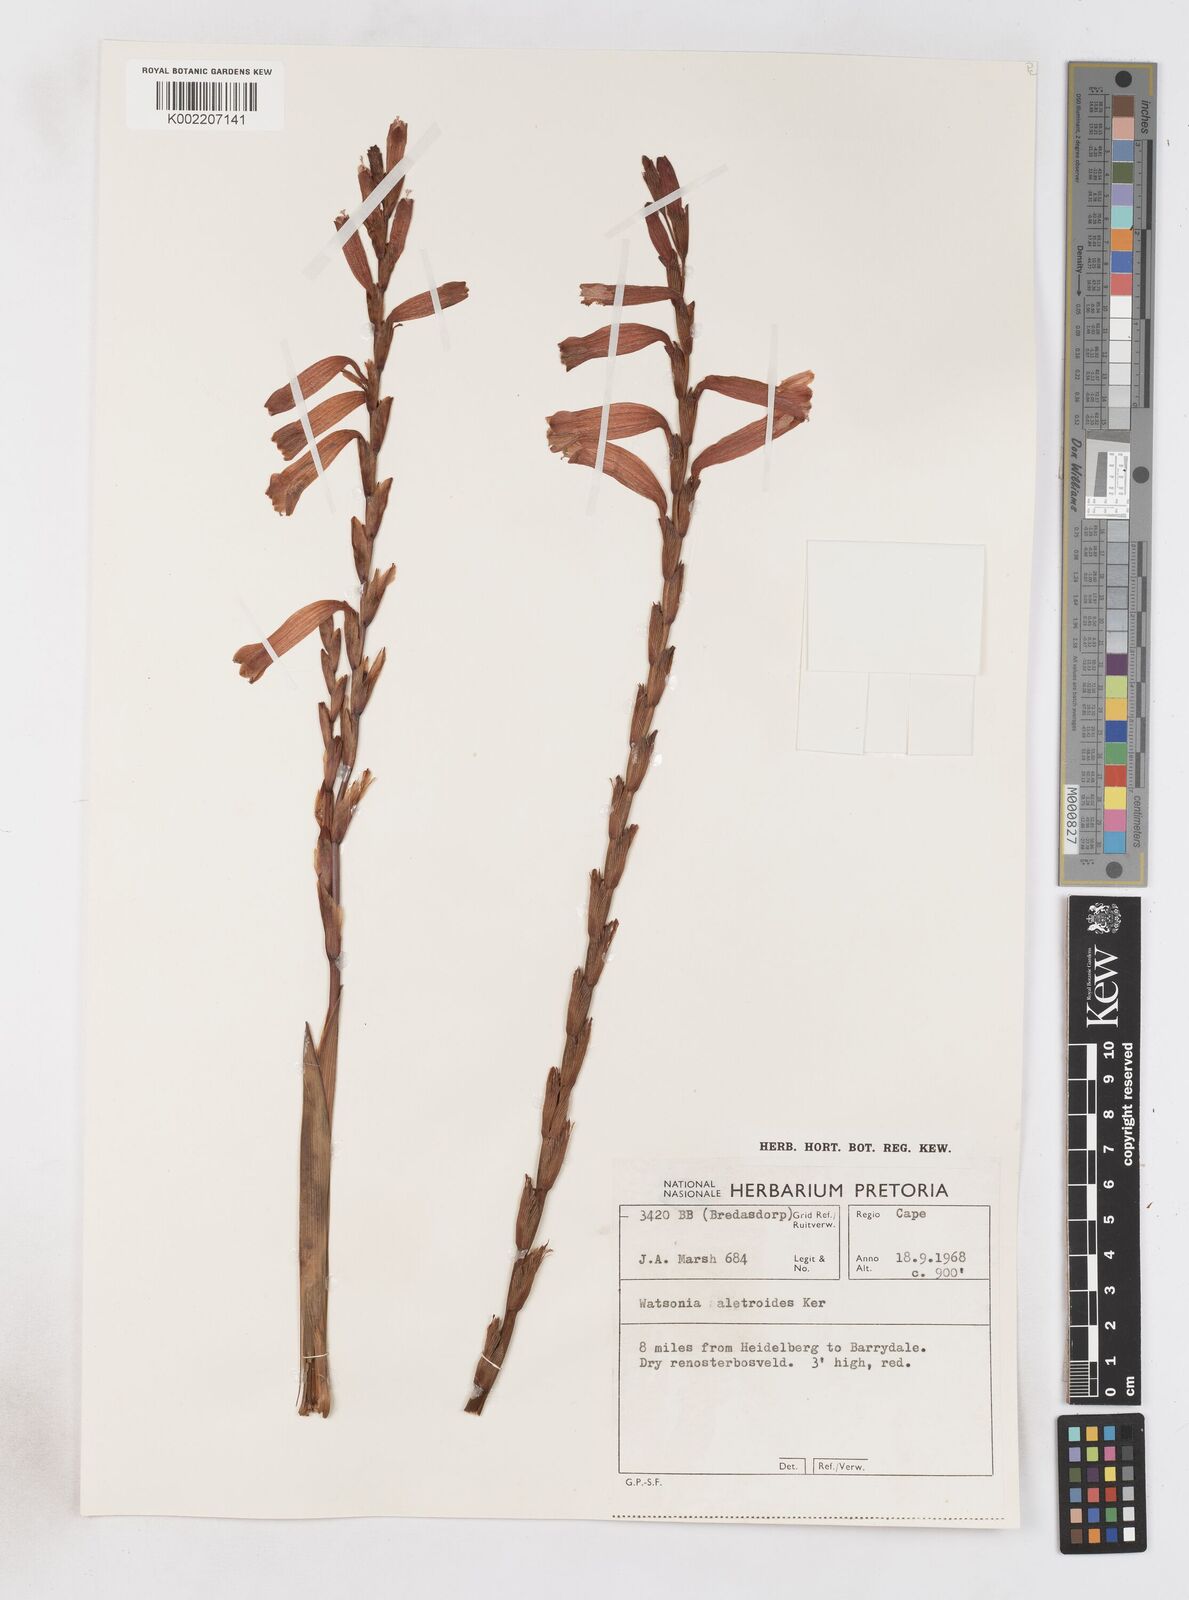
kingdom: Plantae
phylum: Tracheophyta
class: Liliopsida
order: Asparagales
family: Iridaceae
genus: Watsonia
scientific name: Watsonia aletroides
